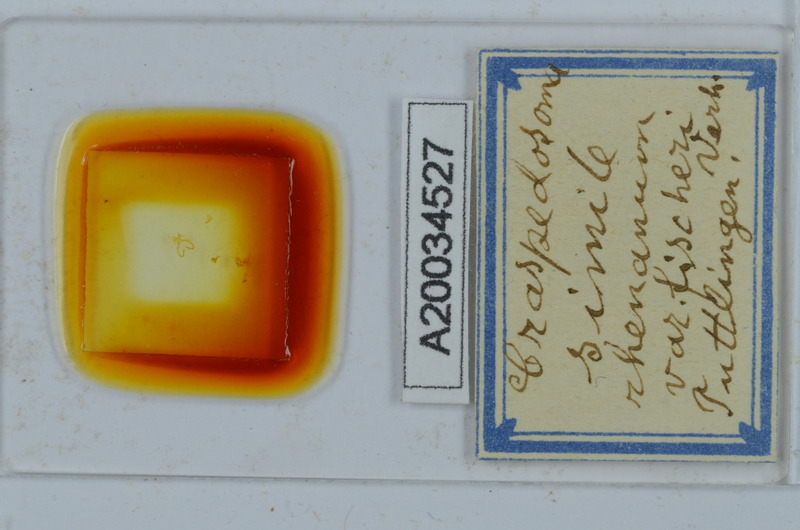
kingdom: Animalia
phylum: Arthropoda
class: Diplopoda
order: Chordeumatida
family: Craspedosomatidae
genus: Craspedosoma
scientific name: Craspedosoma rawlinsii
